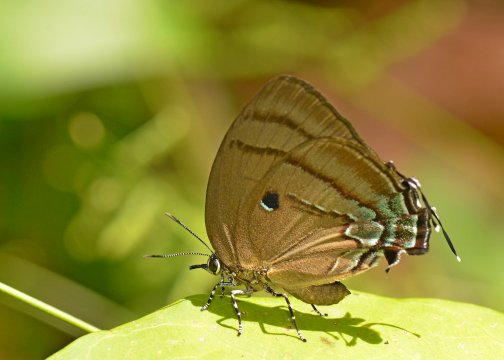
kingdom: Animalia
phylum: Arthropoda
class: Insecta
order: Lepidoptera
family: Lycaenidae
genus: Thecla
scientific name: Thecla hemon
